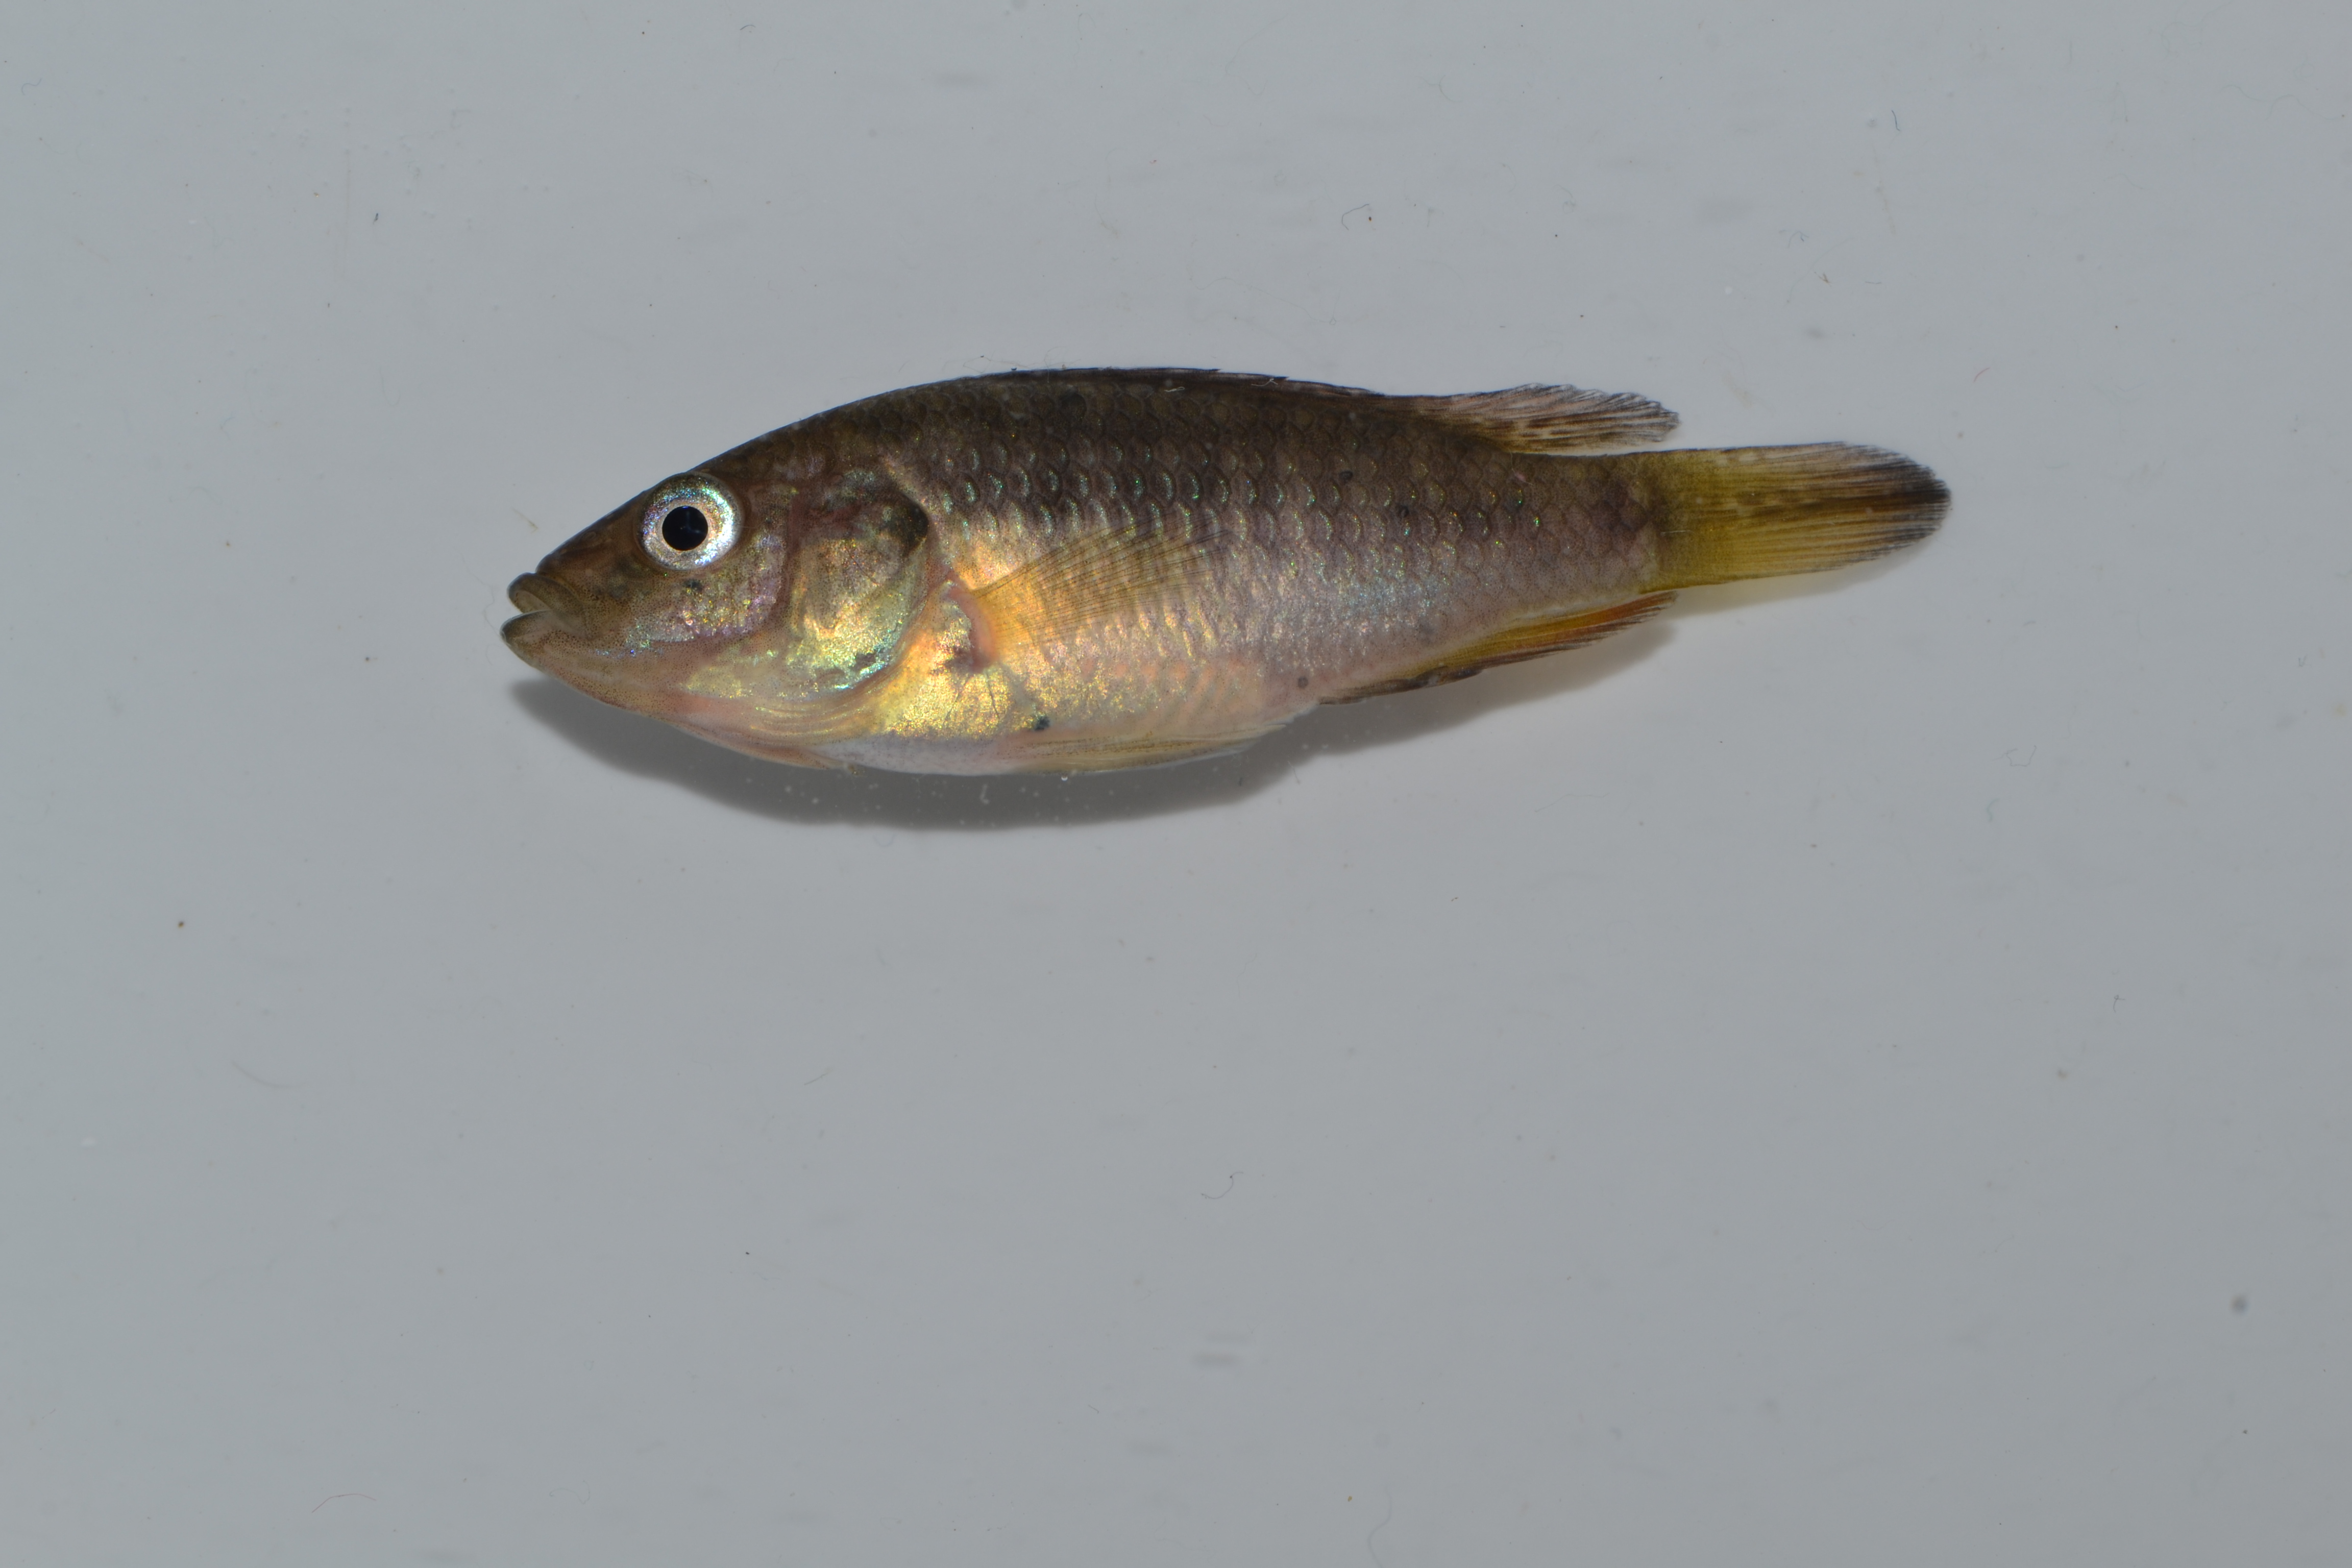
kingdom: Animalia
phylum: Chordata
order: Perciformes
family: Cichlidae
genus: Pseudocrenilabrus
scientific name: Pseudocrenilabrus philander
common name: Southern mouthbrooder
